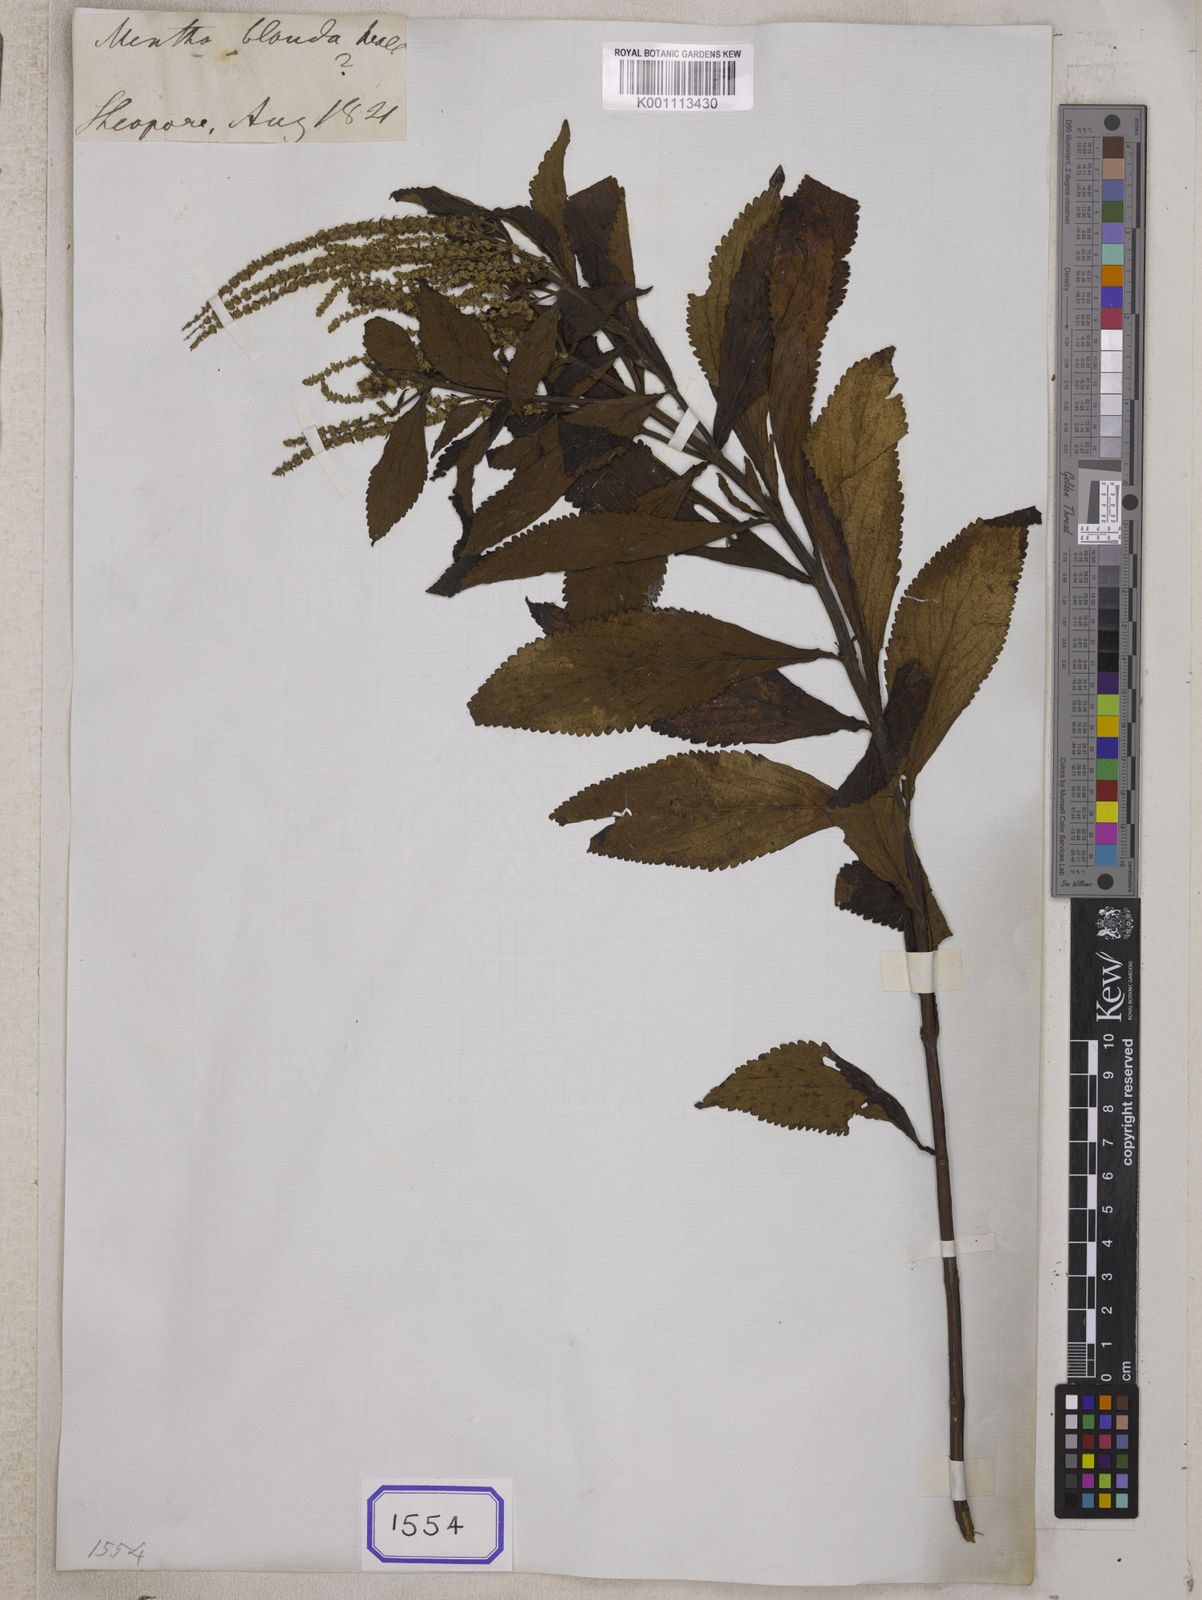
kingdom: Plantae
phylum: Tracheophyta
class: Magnoliopsida
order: Lamiales
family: Lamiaceae
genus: Elsholtzia
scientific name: Elsholtzia fruticosa
